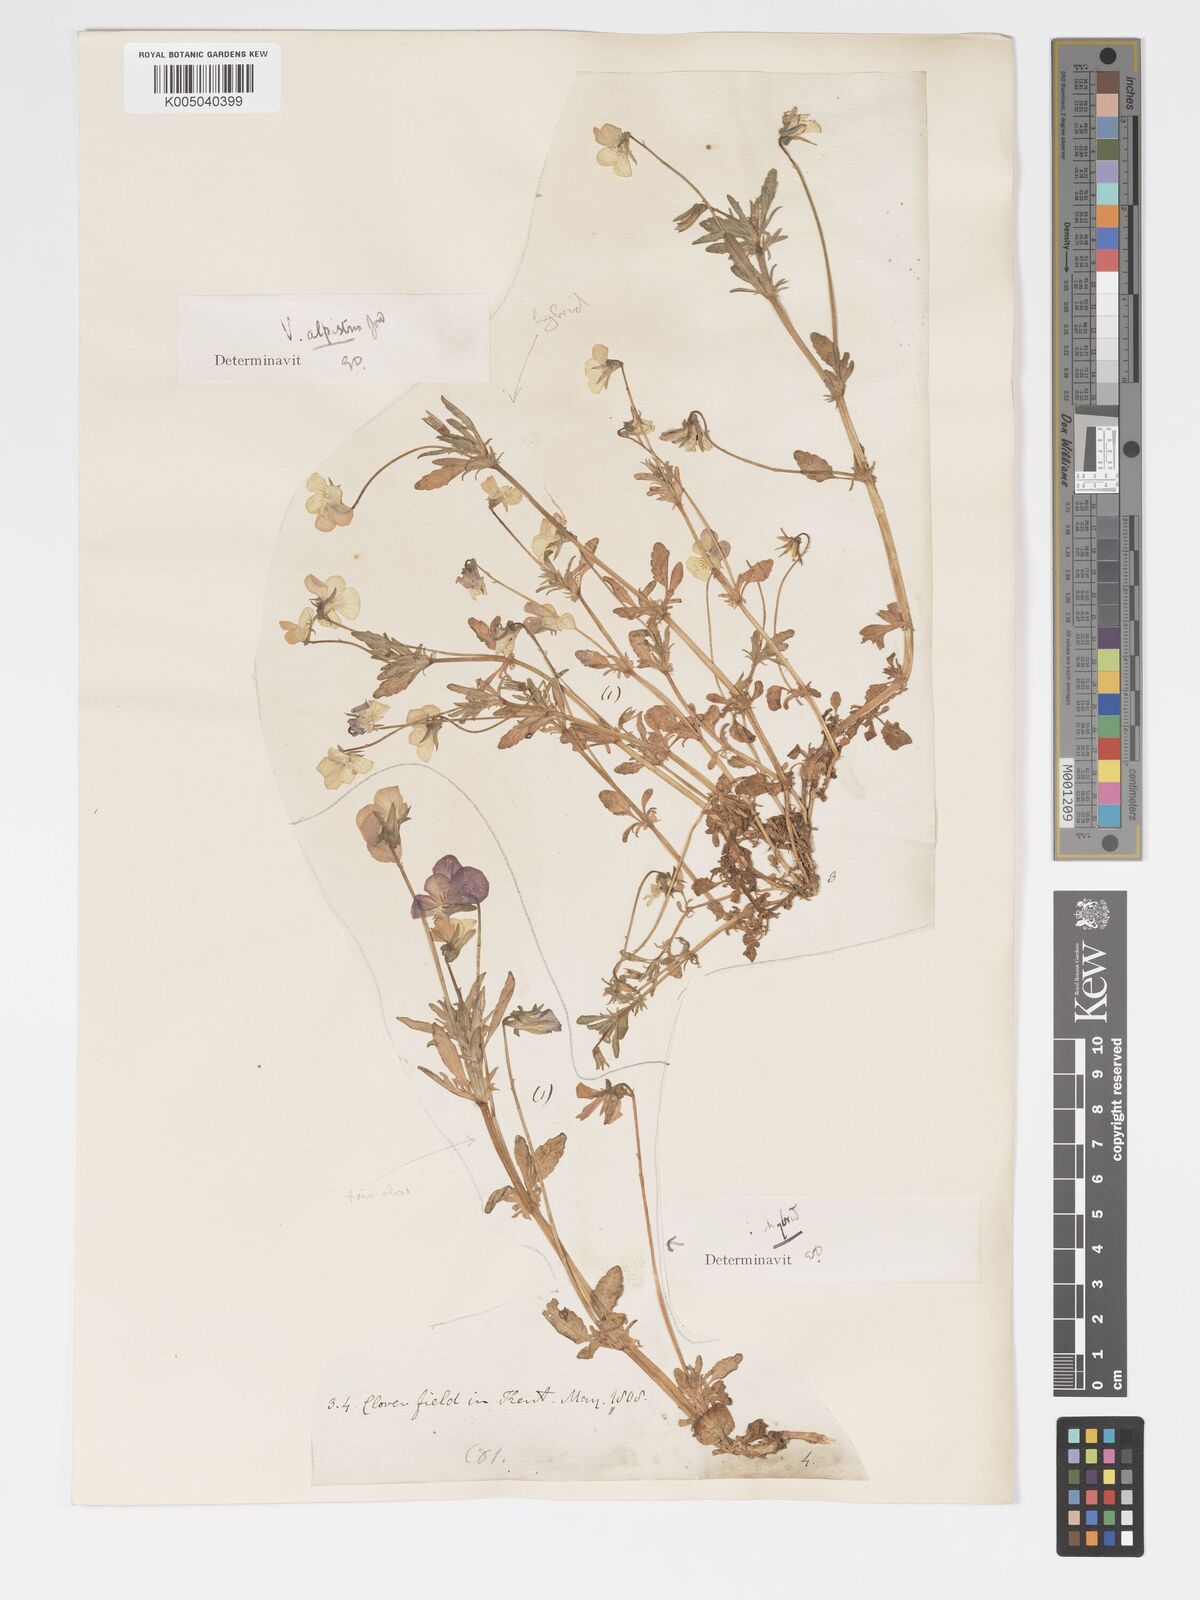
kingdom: Plantae
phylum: Tracheophyta
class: Magnoliopsida
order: Malpighiales
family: Violaceae
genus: Viola
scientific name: Viola arvensis
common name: Field pansy
